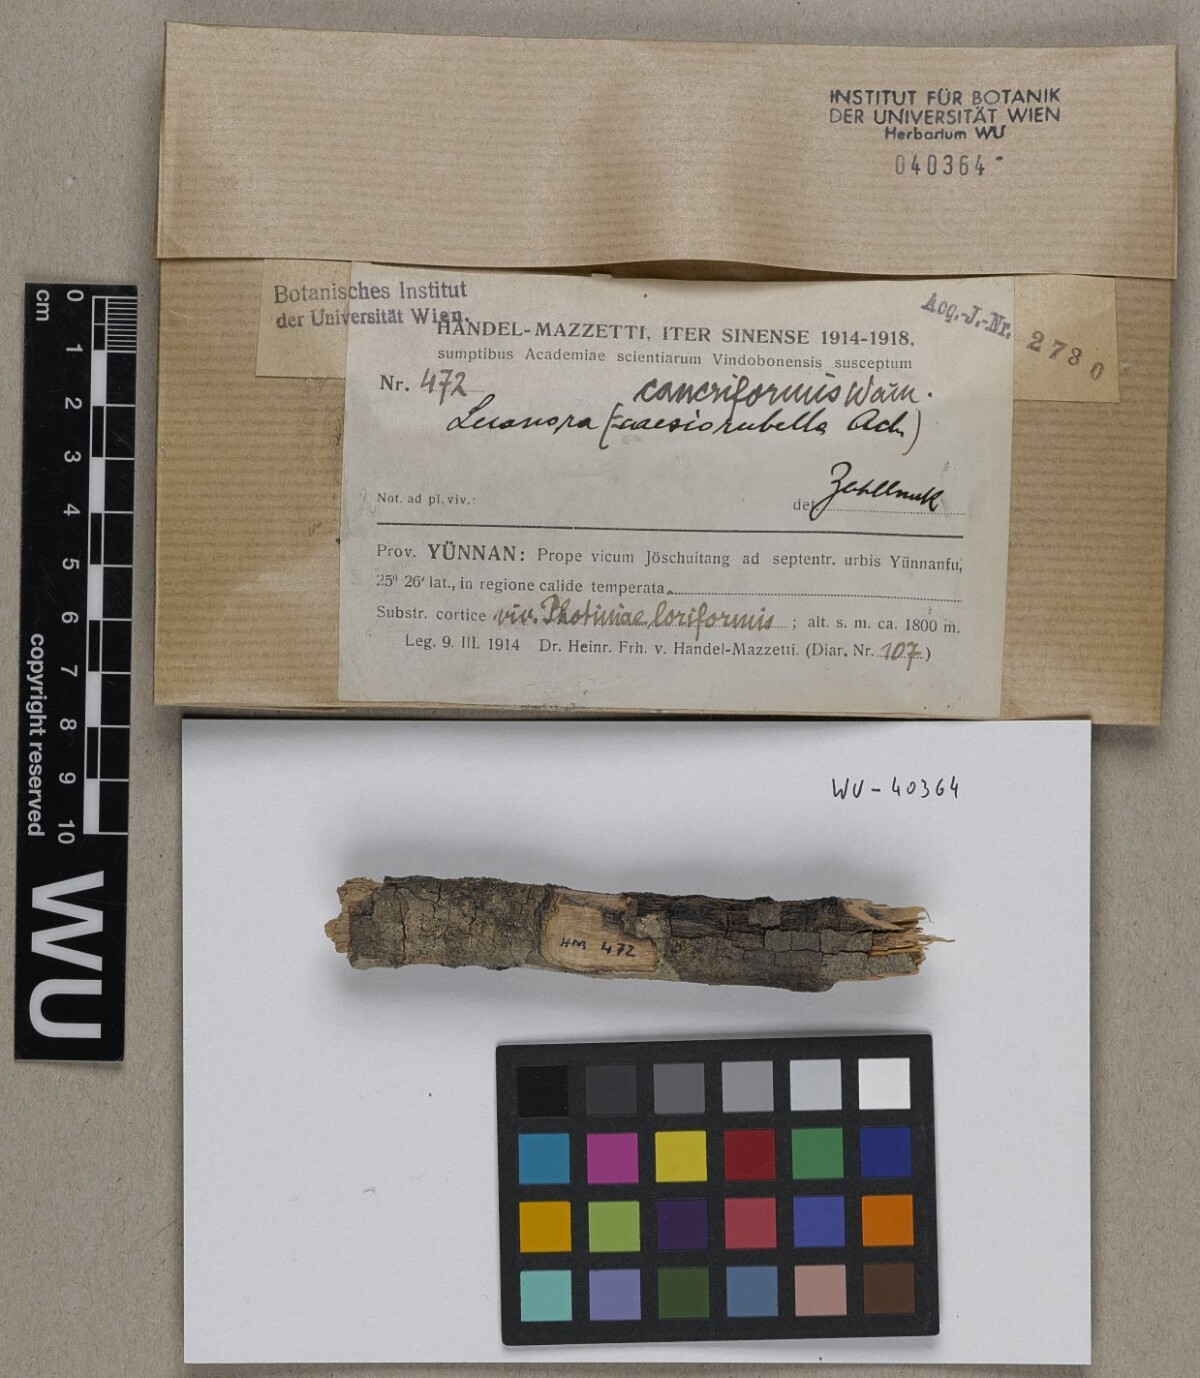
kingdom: Fungi
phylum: Ascomycota
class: Lecanoromycetes
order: Lecanorales
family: Lecanoraceae
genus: Lecanora
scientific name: Lecanora caesiorubella
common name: Frosted rim-lichen
